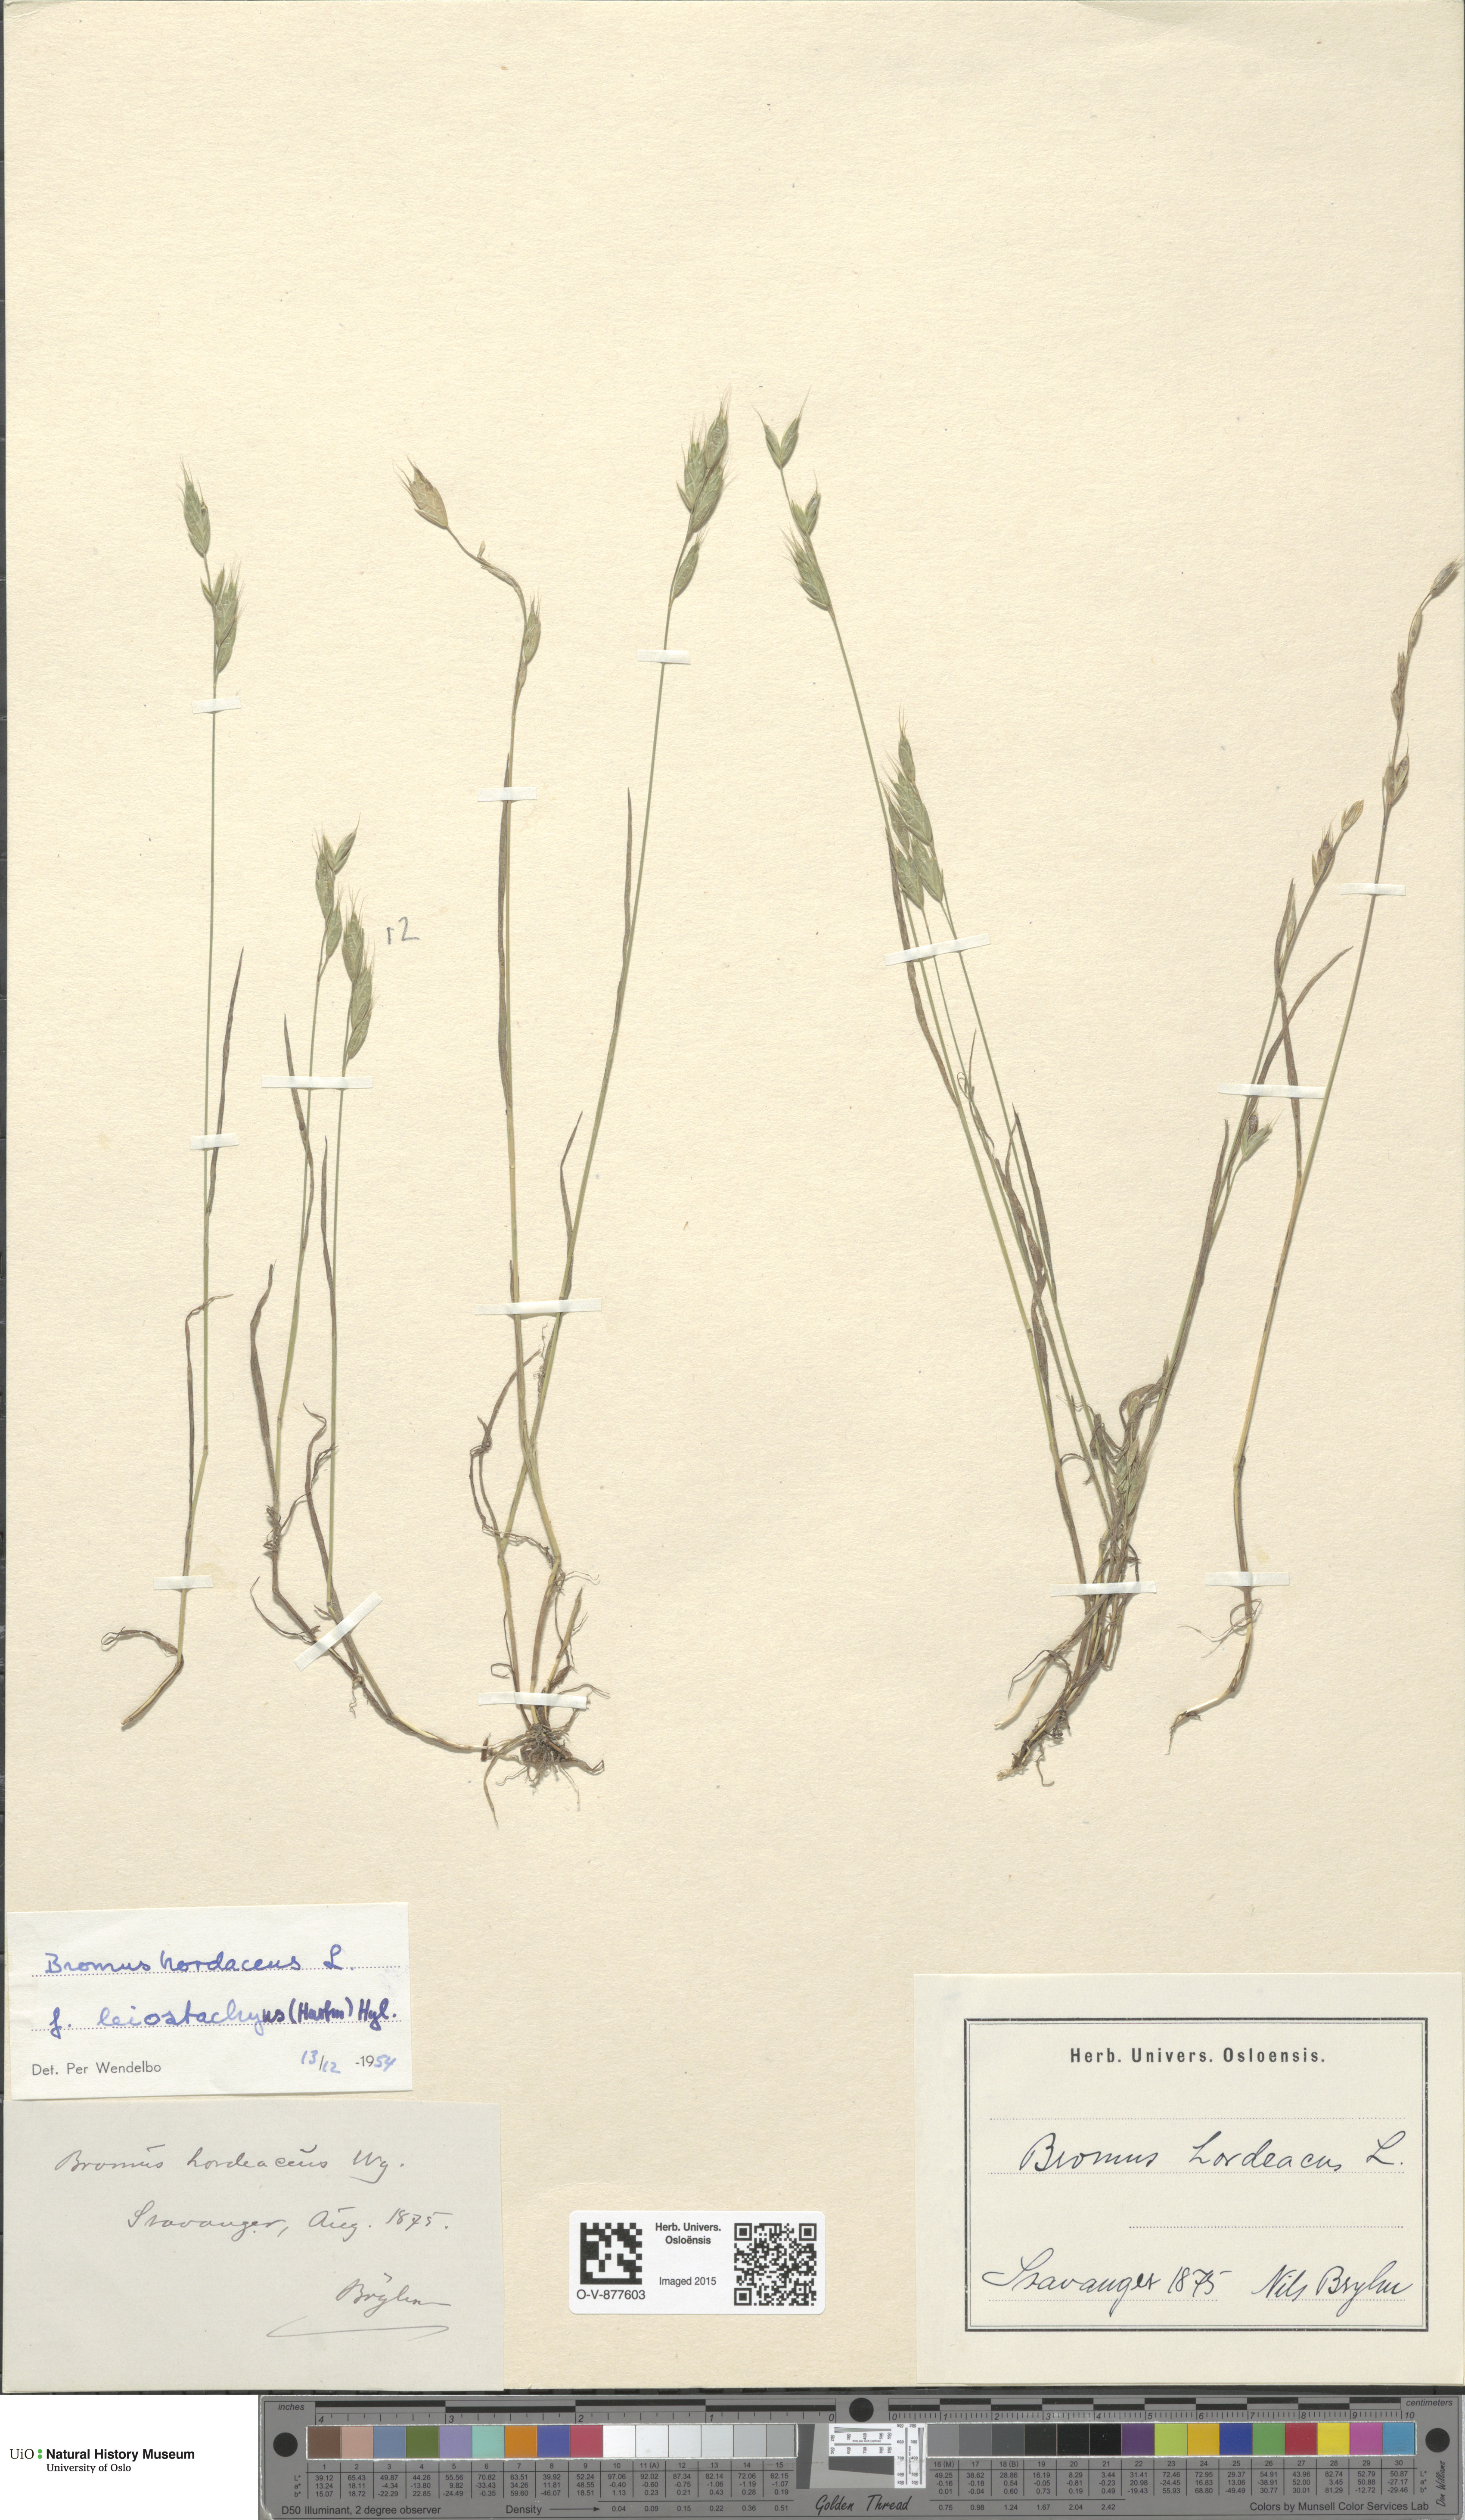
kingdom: Plantae
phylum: Tracheophyta
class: Liliopsida
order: Poales
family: Poaceae
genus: Bromus
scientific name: Bromus hordeaceus
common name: Soft brome
